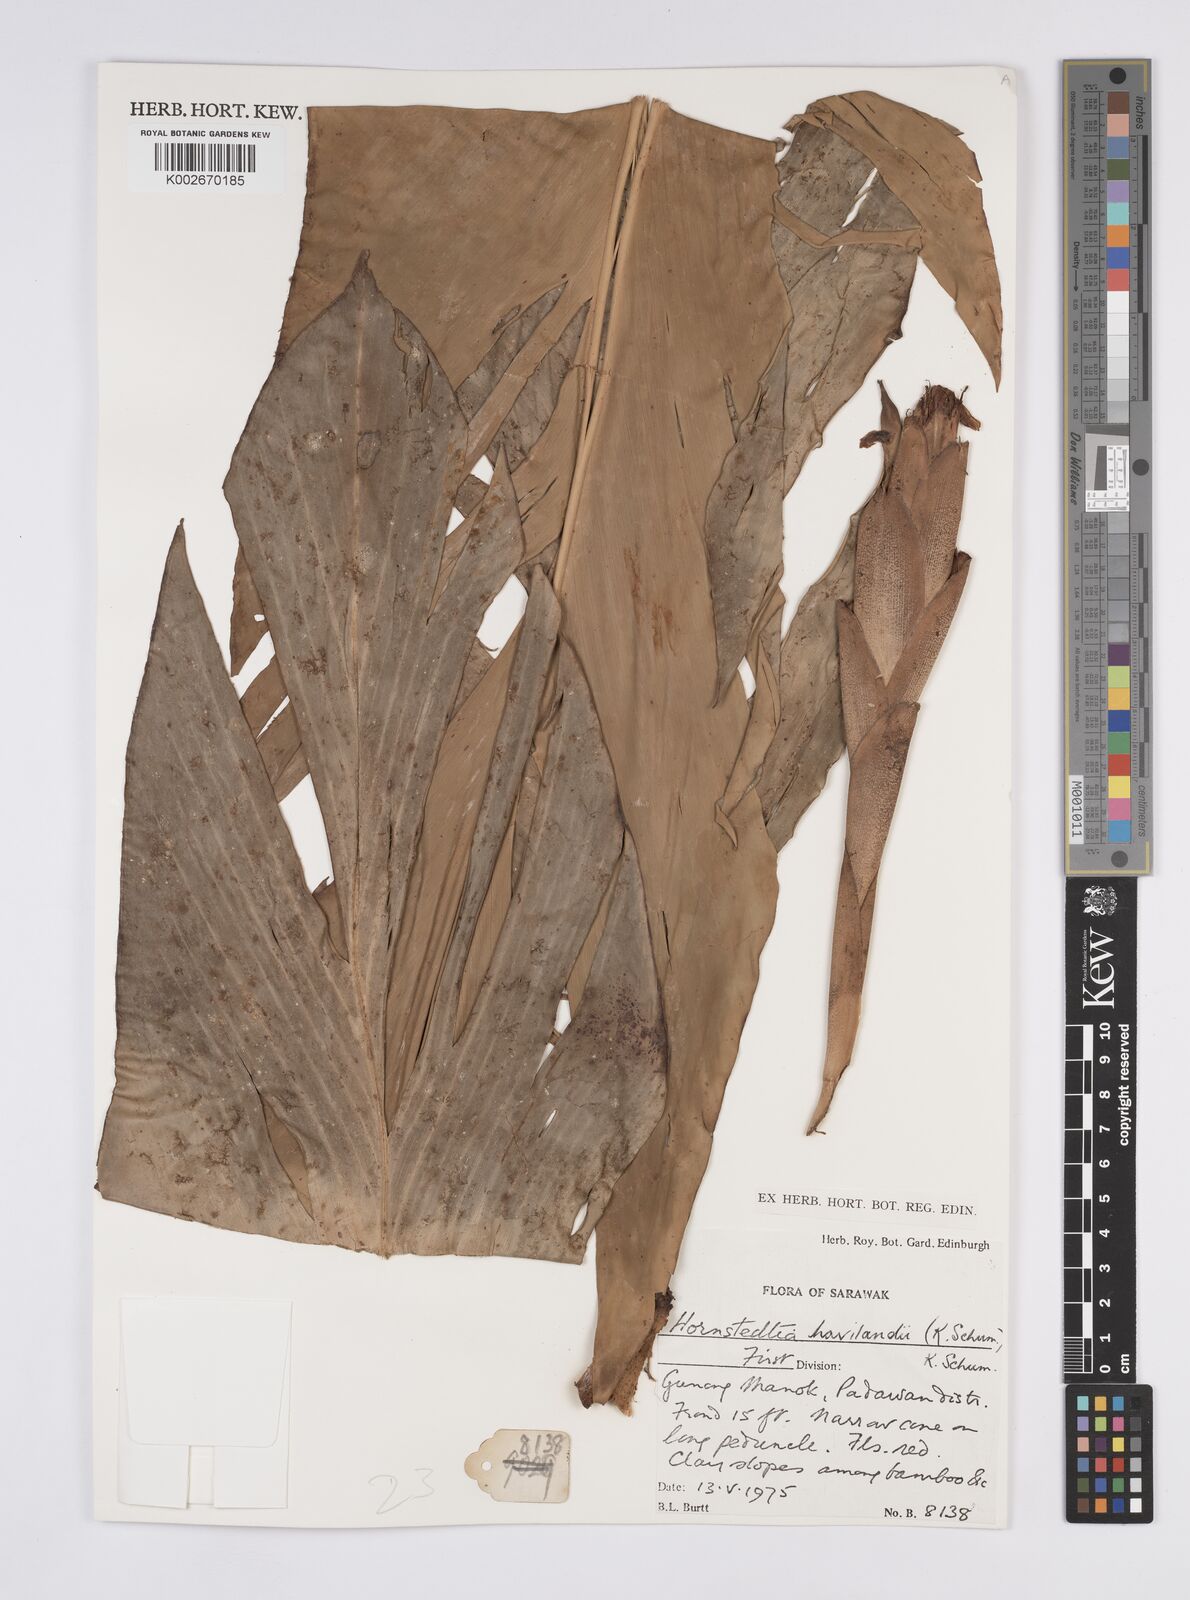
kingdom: Plantae
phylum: Tracheophyta
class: Liliopsida
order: Zingiberales
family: Zingiberaceae
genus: Hornstedtia
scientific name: Hornstedtia havilandii
